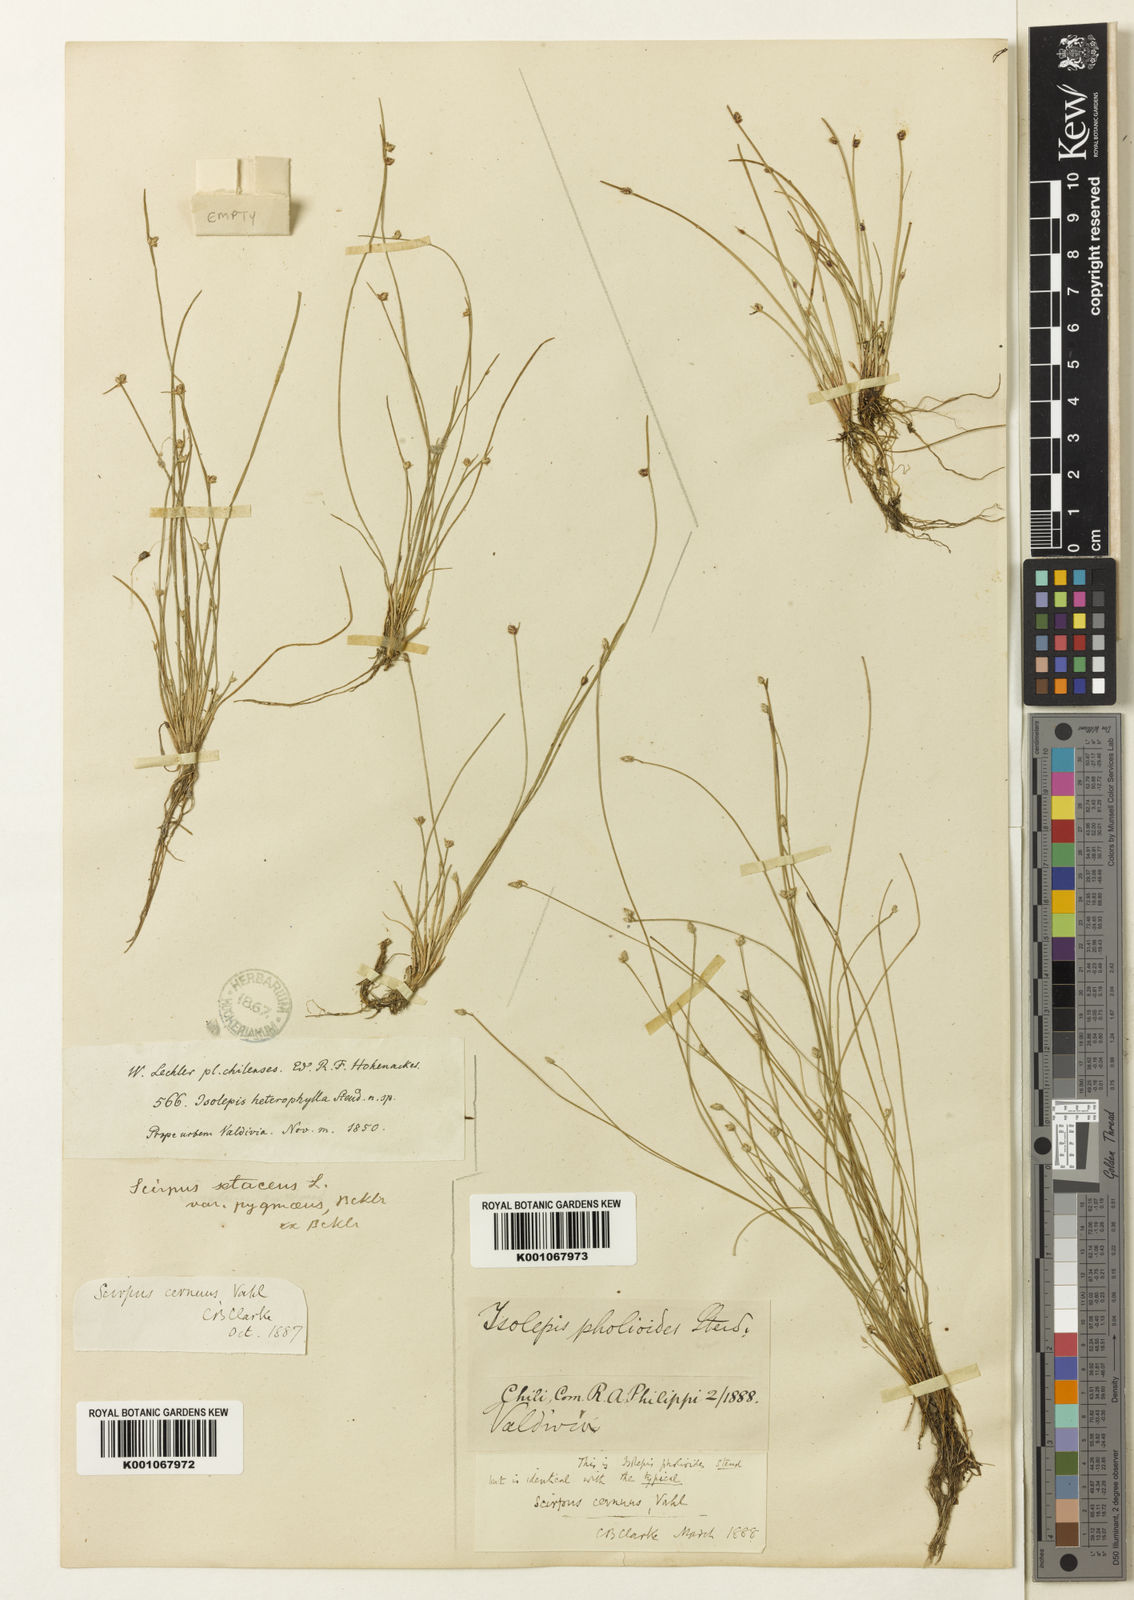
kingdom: Plantae
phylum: Tracheophyta
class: Liliopsida
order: Poales
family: Cyperaceae
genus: Isolepis
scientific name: Isolepis cernua
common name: Slender club-rush
